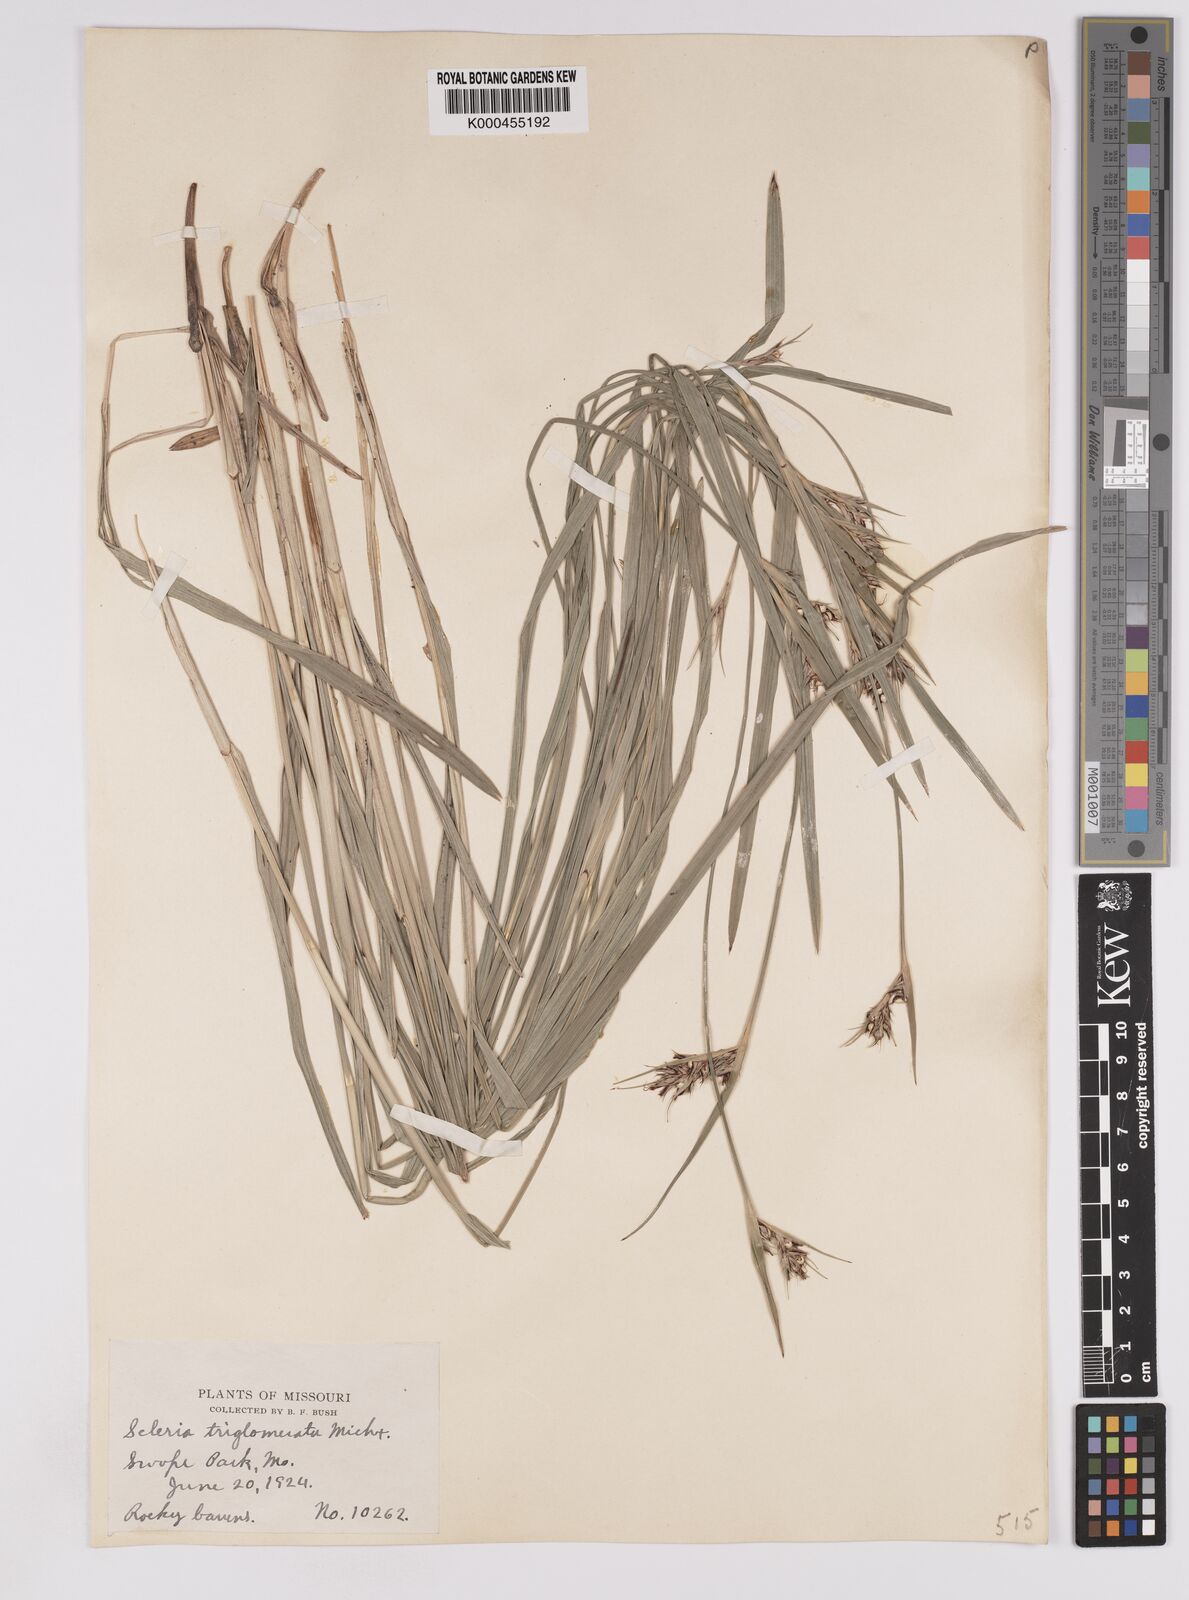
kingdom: Plantae
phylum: Tracheophyta
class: Liliopsida
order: Poales
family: Cyperaceae
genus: Scleria
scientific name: Scleria triglomerata
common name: Whip nutrush
